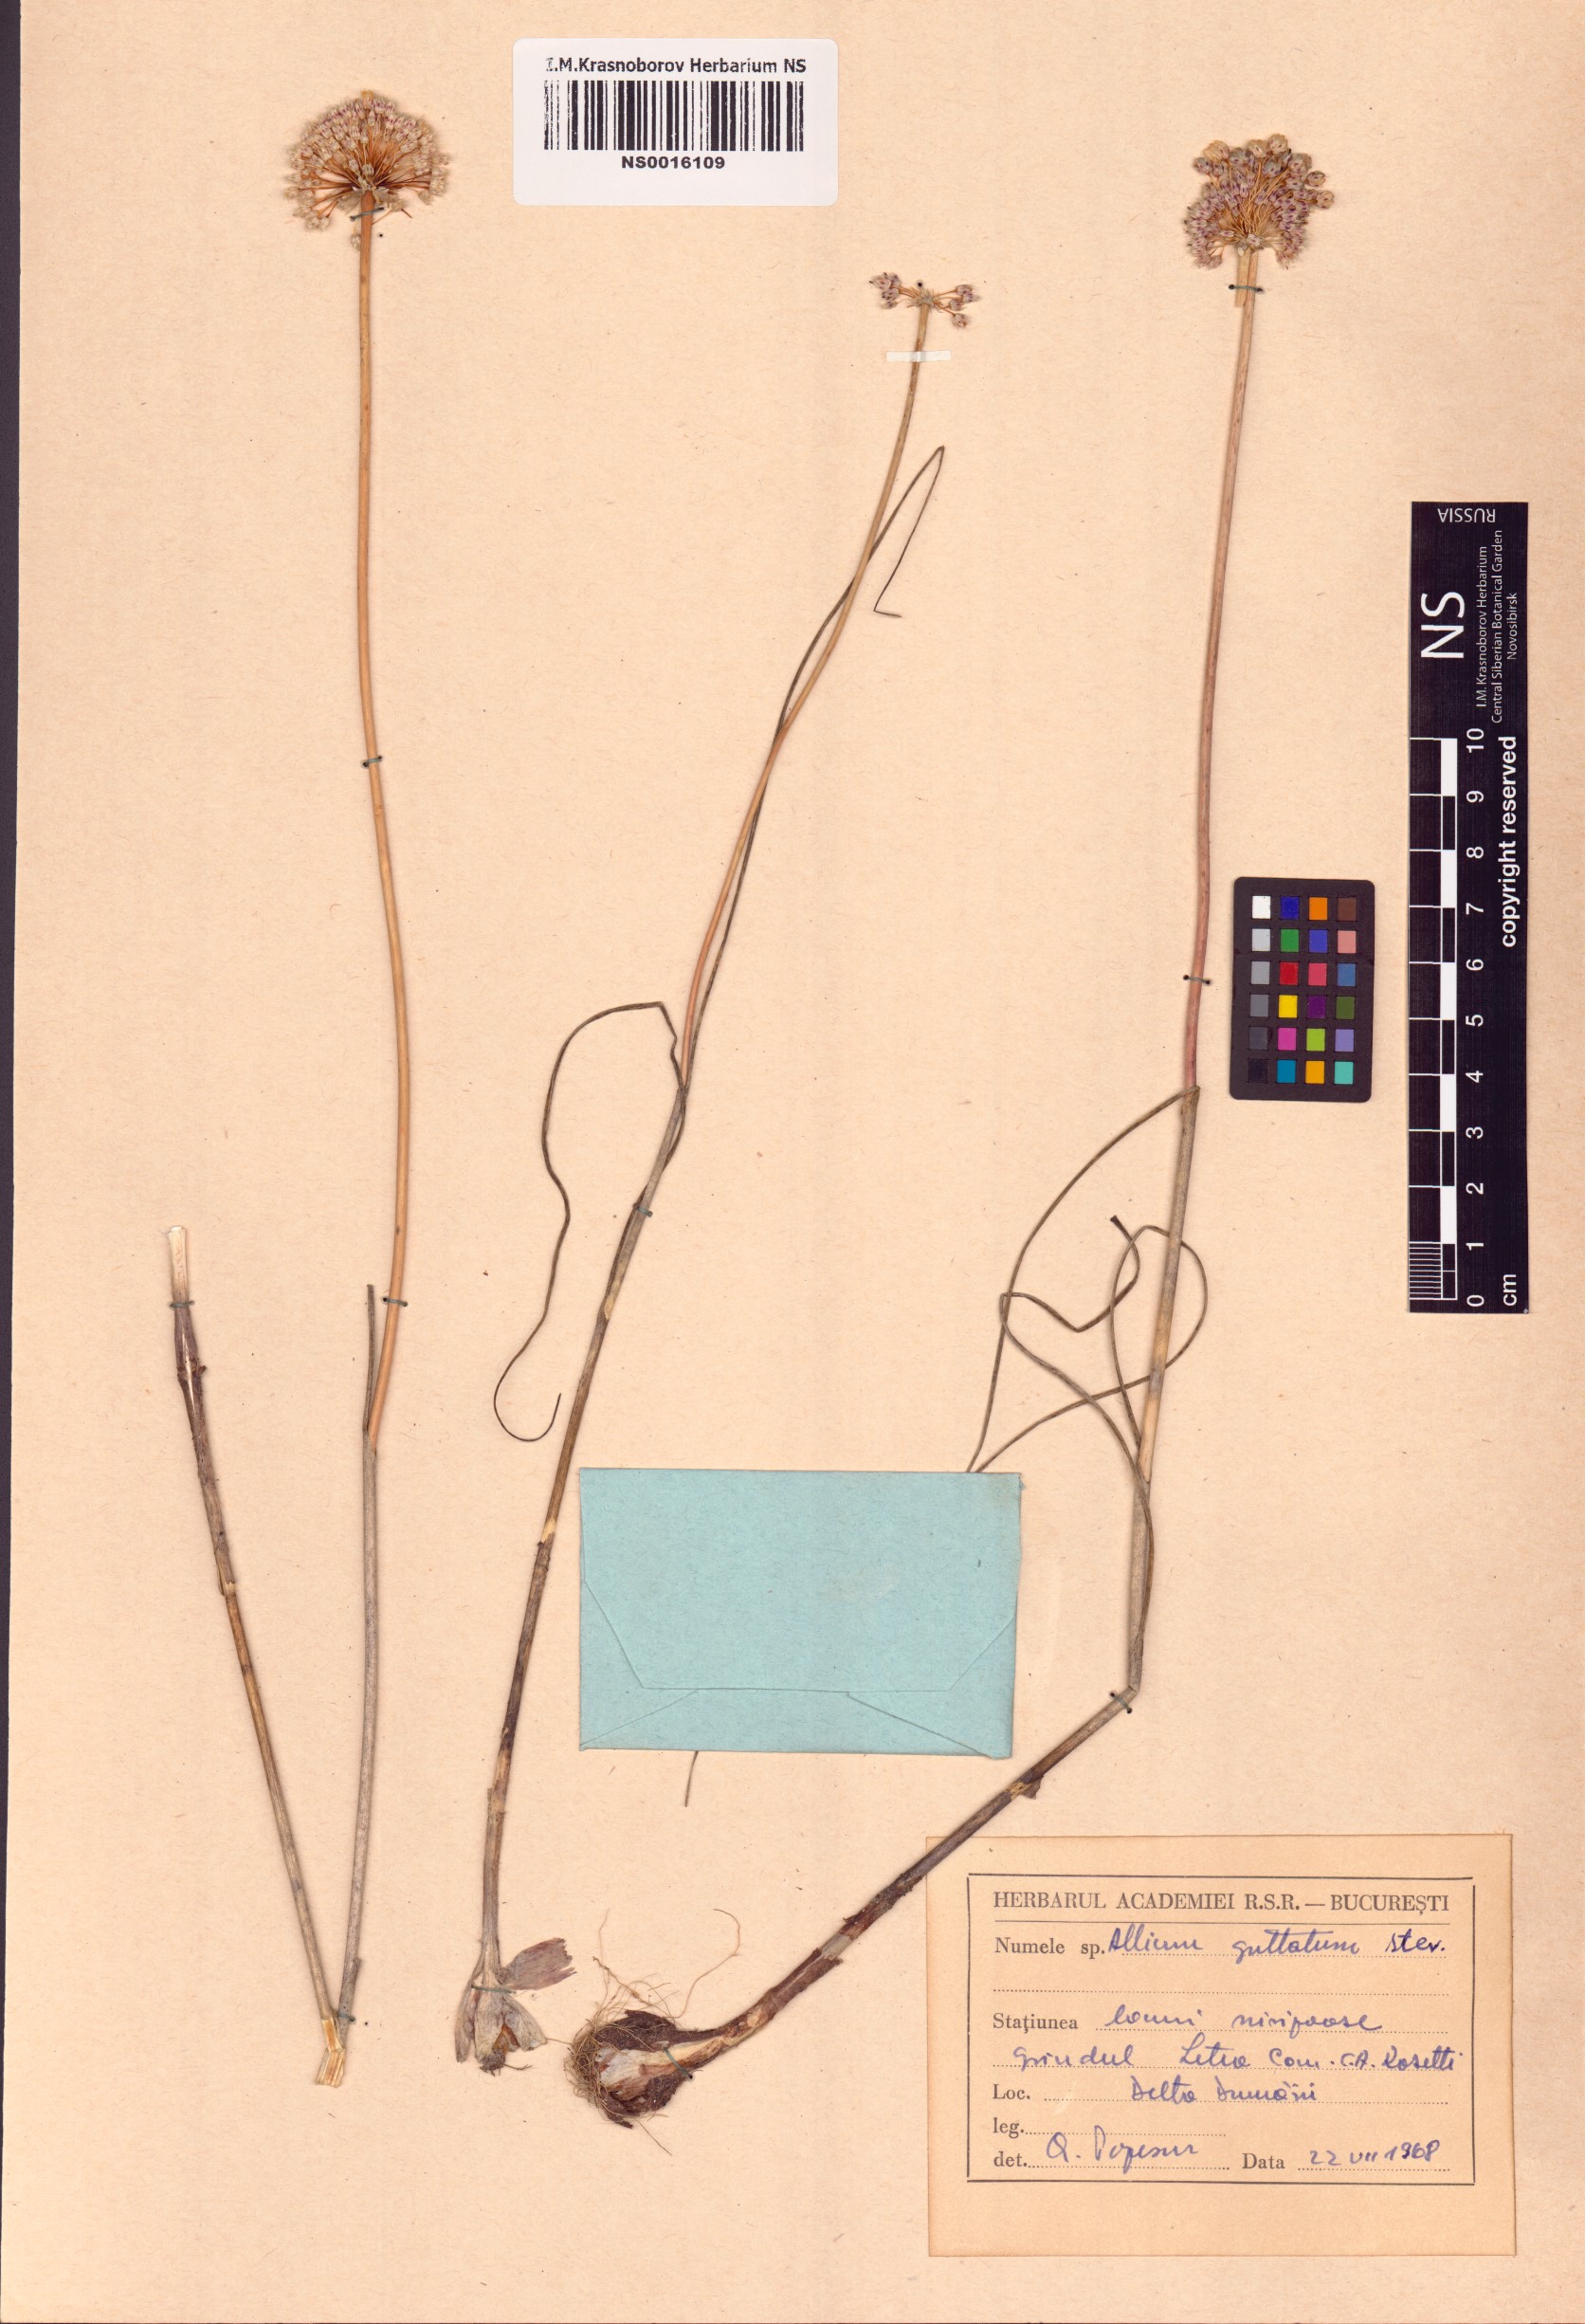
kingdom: Plantae
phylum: Tracheophyta
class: Liliopsida
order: Asparagales
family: Amaryllidaceae
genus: Allium
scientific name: Allium guttatum
